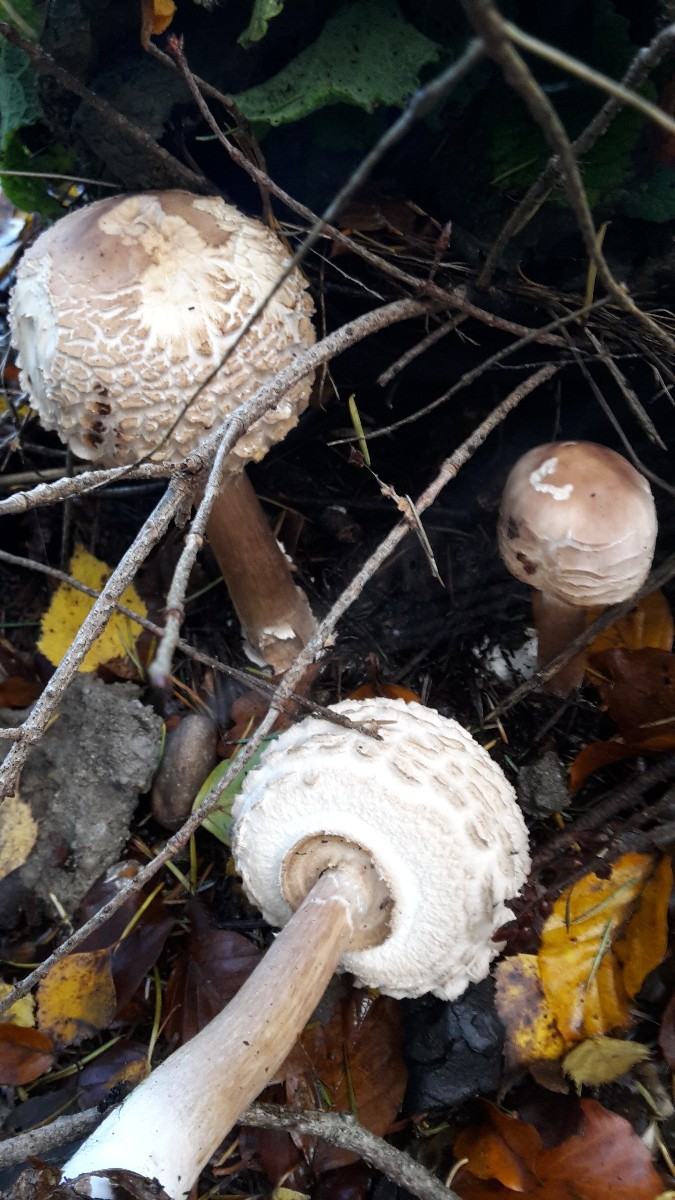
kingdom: Fungi
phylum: Basidiomycota
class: Agaricomycetes
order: Agaricales
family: Agaricaceae
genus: Chlorophyllum
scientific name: Chlorophyllum olivieri
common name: almindelig rabarberhat
